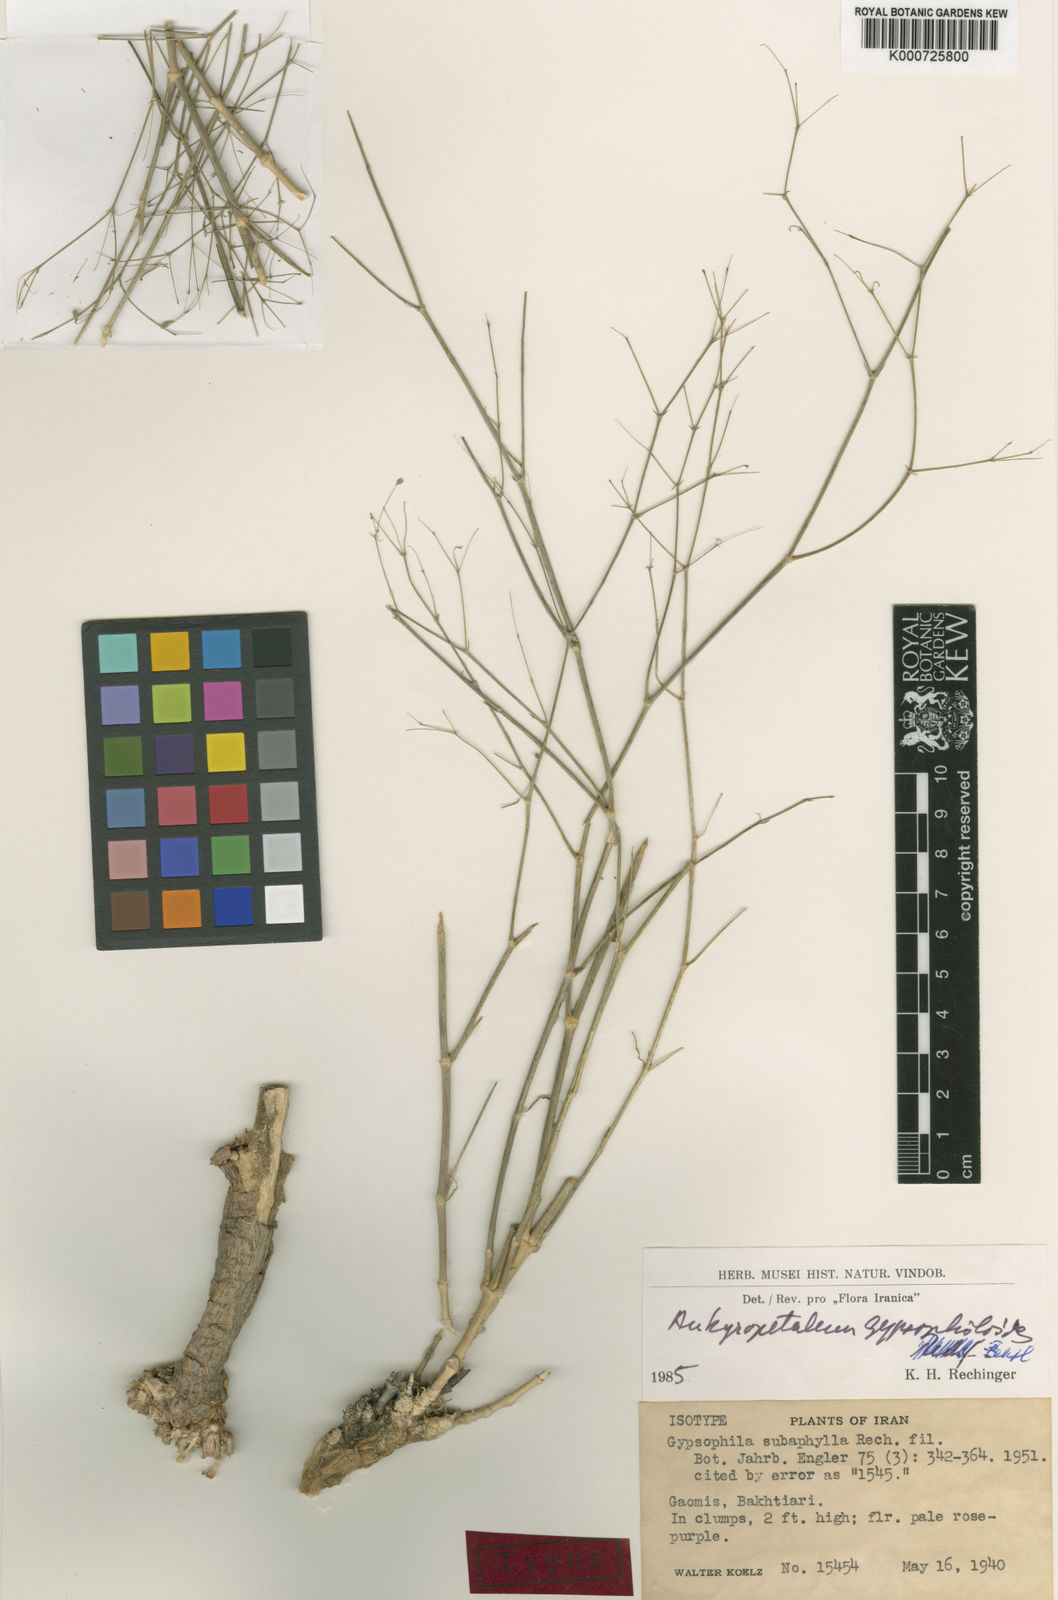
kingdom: Plantae
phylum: Tracheophyta
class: Magnoliopsida
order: Caryophyllales
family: Caryophyllaceae
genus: Mesostemma
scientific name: Mesostemma gypsophiloides
